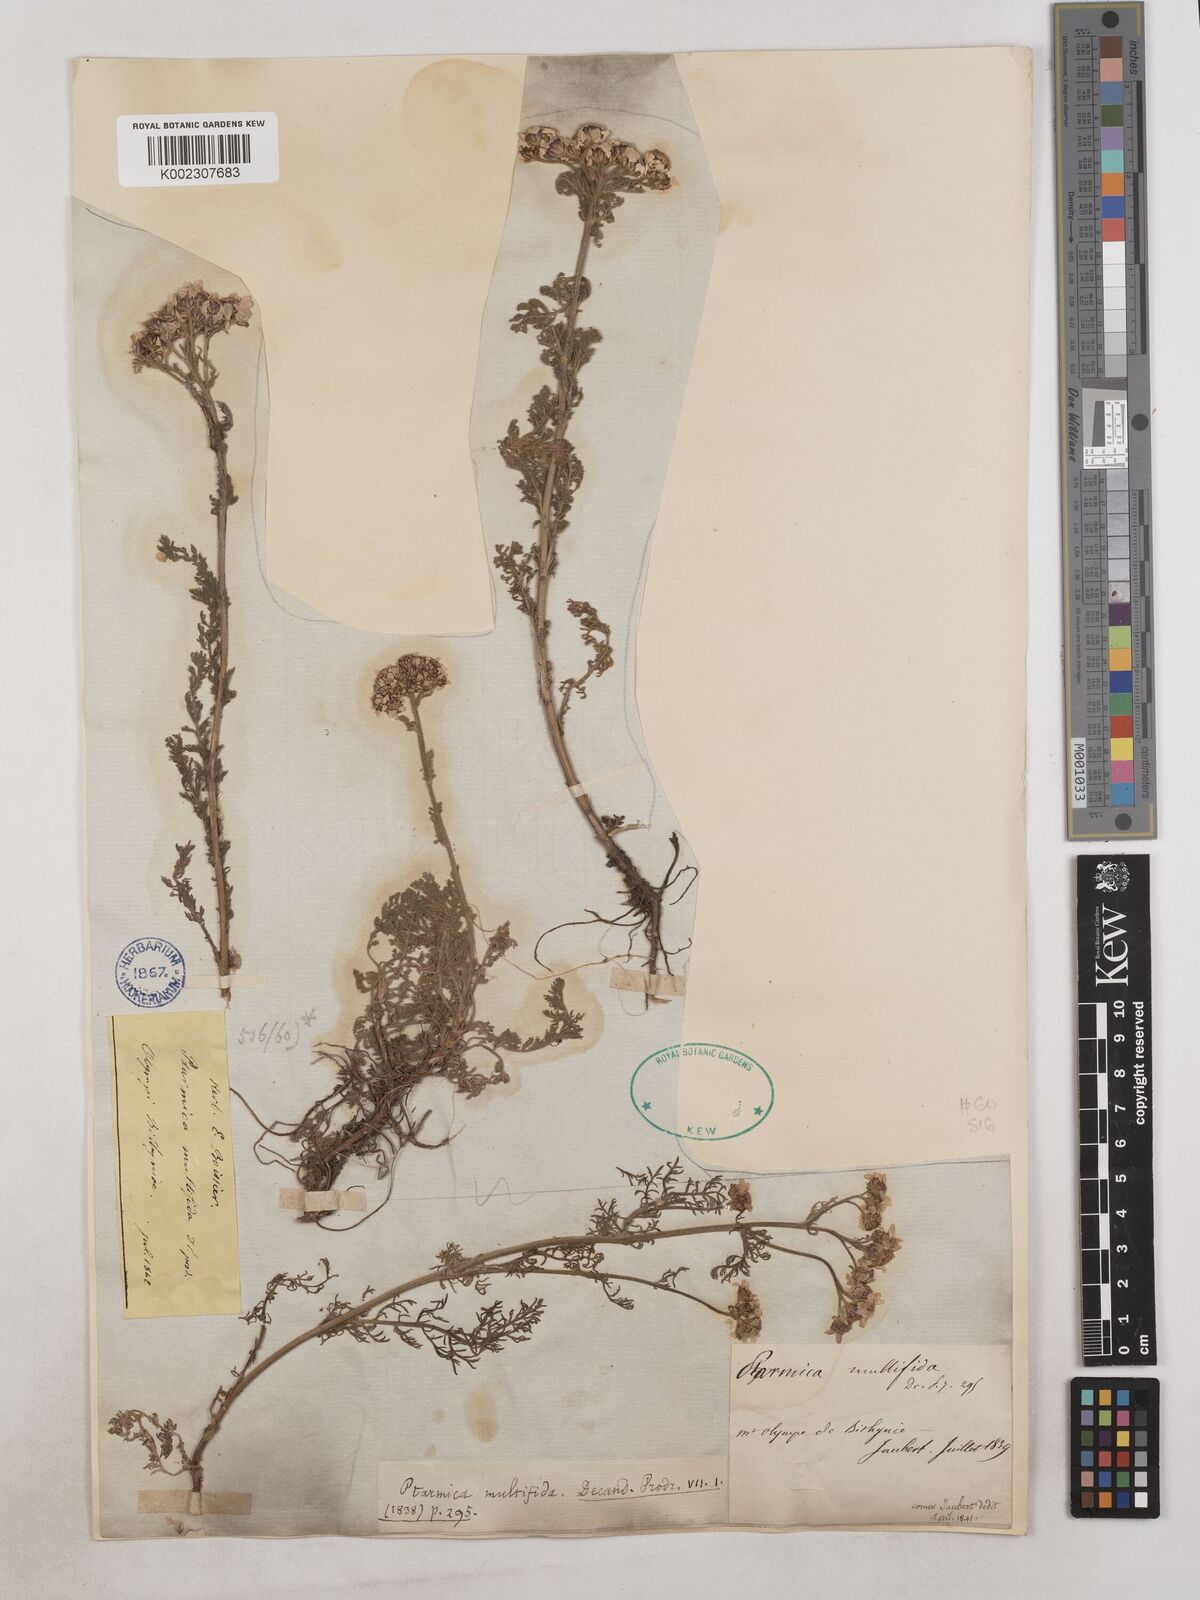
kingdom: Plantae
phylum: Tracheophyta
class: Magnoliopsida
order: Asterales
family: Asteraceae
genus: Achillea
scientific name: Achillea multifida
